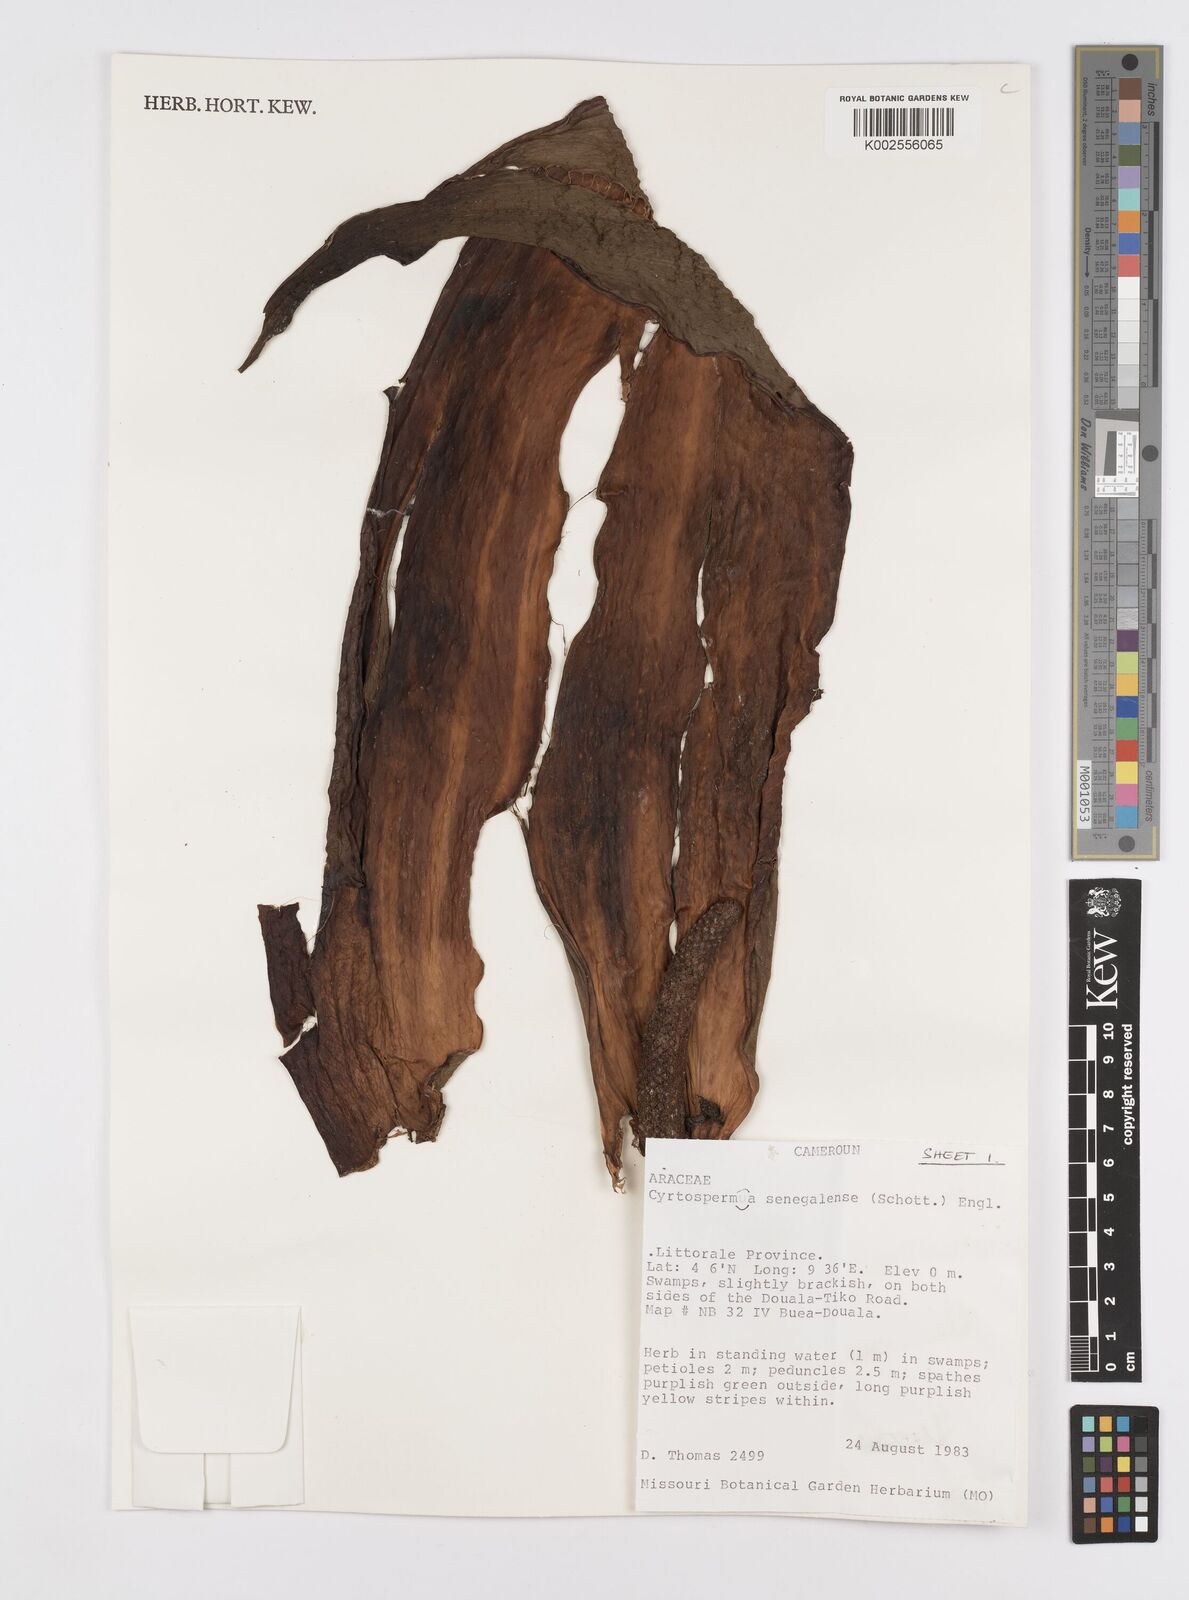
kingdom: Plantae
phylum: Tracheophyta
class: Liliopsida
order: Alismatales
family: Araceae
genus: Lasimorpha
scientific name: Lasimorpha senegalensis
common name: Swamp arum
